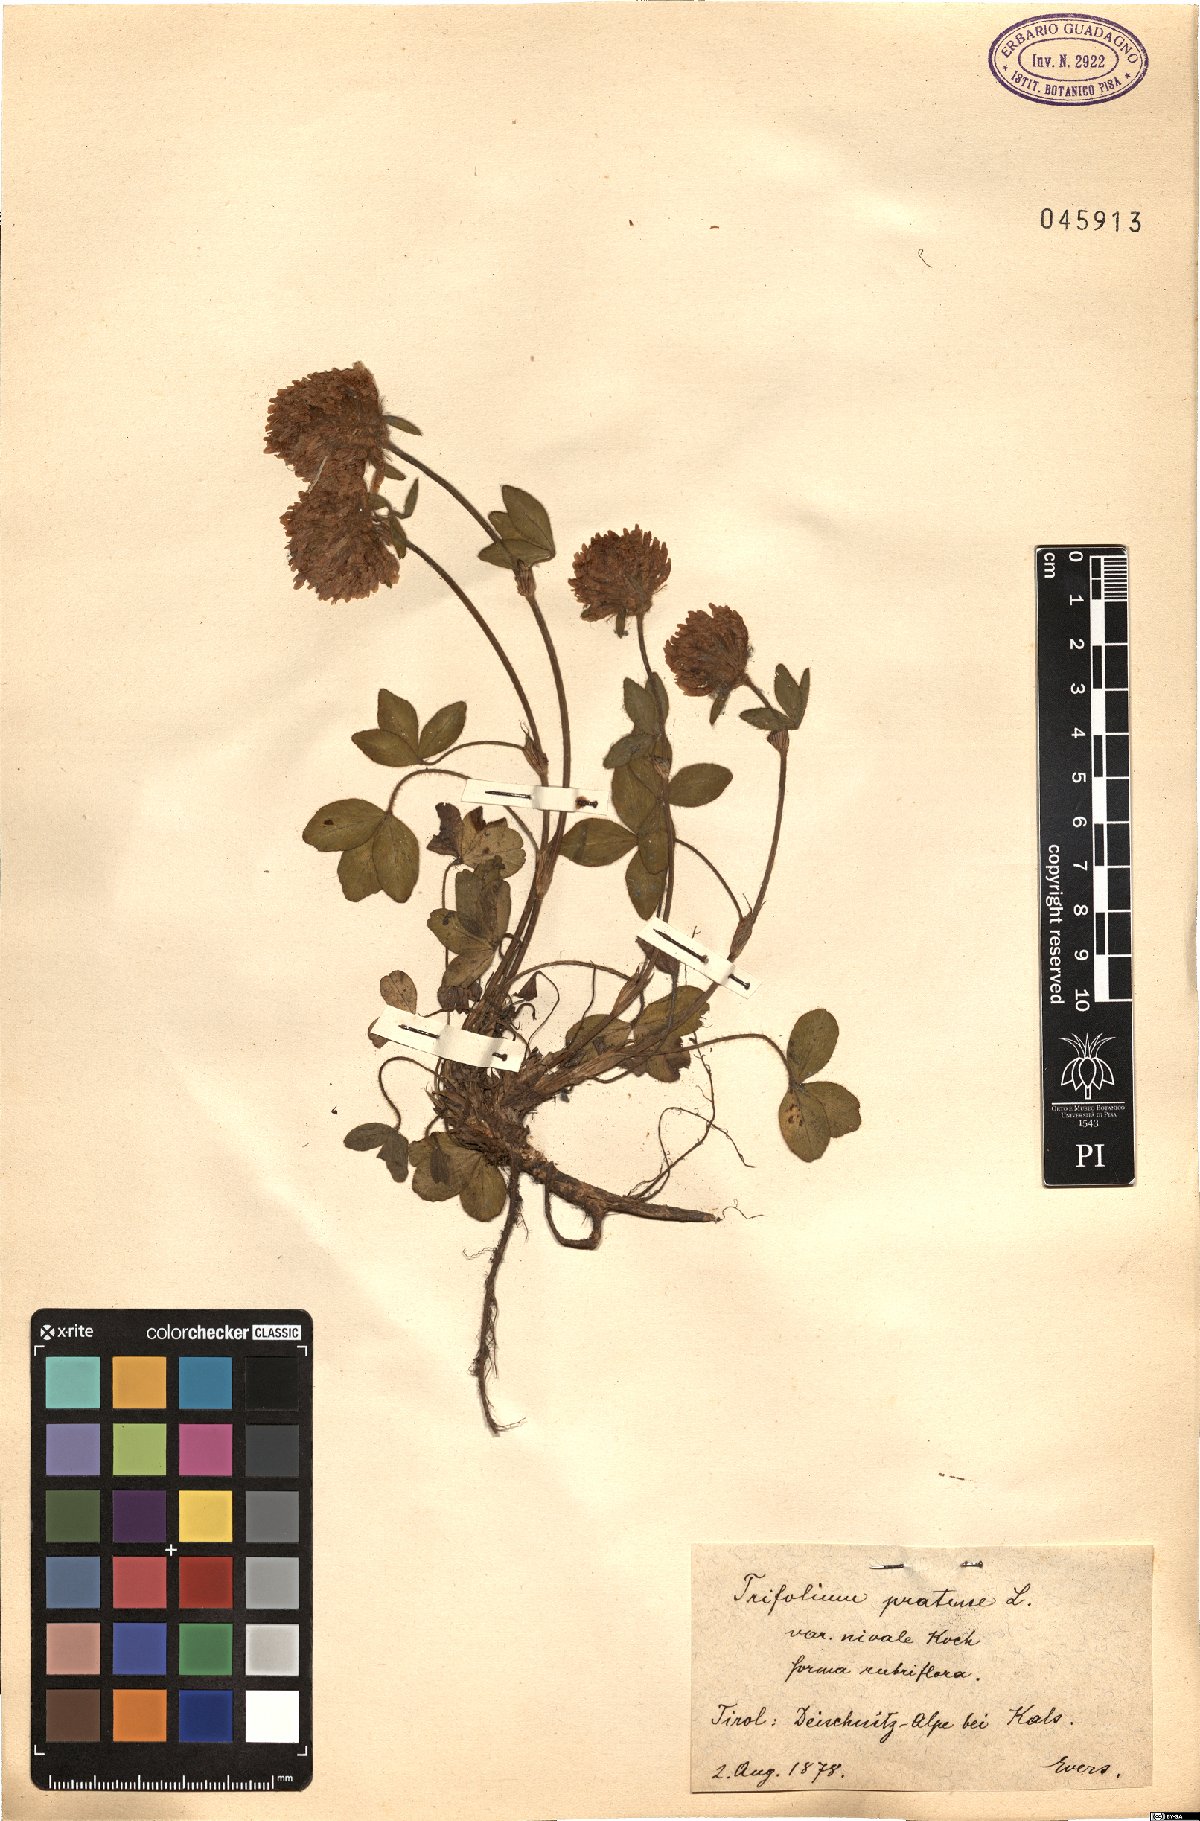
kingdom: Plantae
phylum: Tracheophyta
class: Magnoliopsida
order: Fabales
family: Fabaceae
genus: Trifolium
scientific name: Trifolium pratense
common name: Red clover
